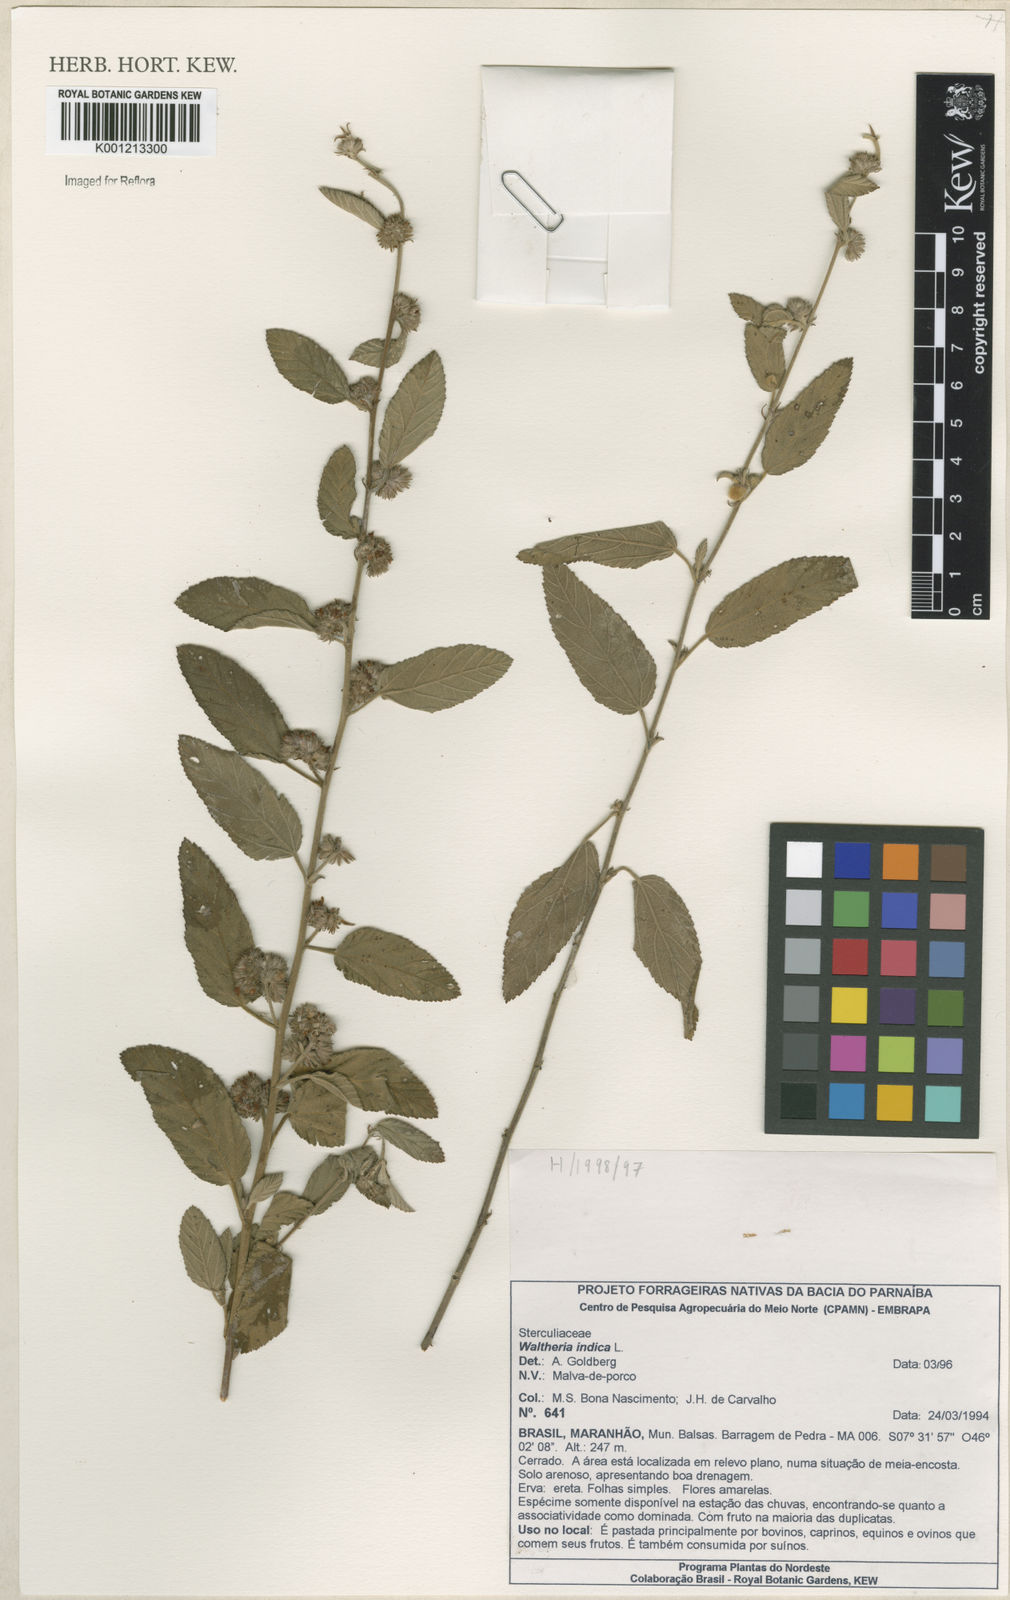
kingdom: Plantae
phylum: Tracheophyta
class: Magnoliopsida
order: Malvales
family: Malvaceae
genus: Waltheria
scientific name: Waltheria indica
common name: Leather-coat
